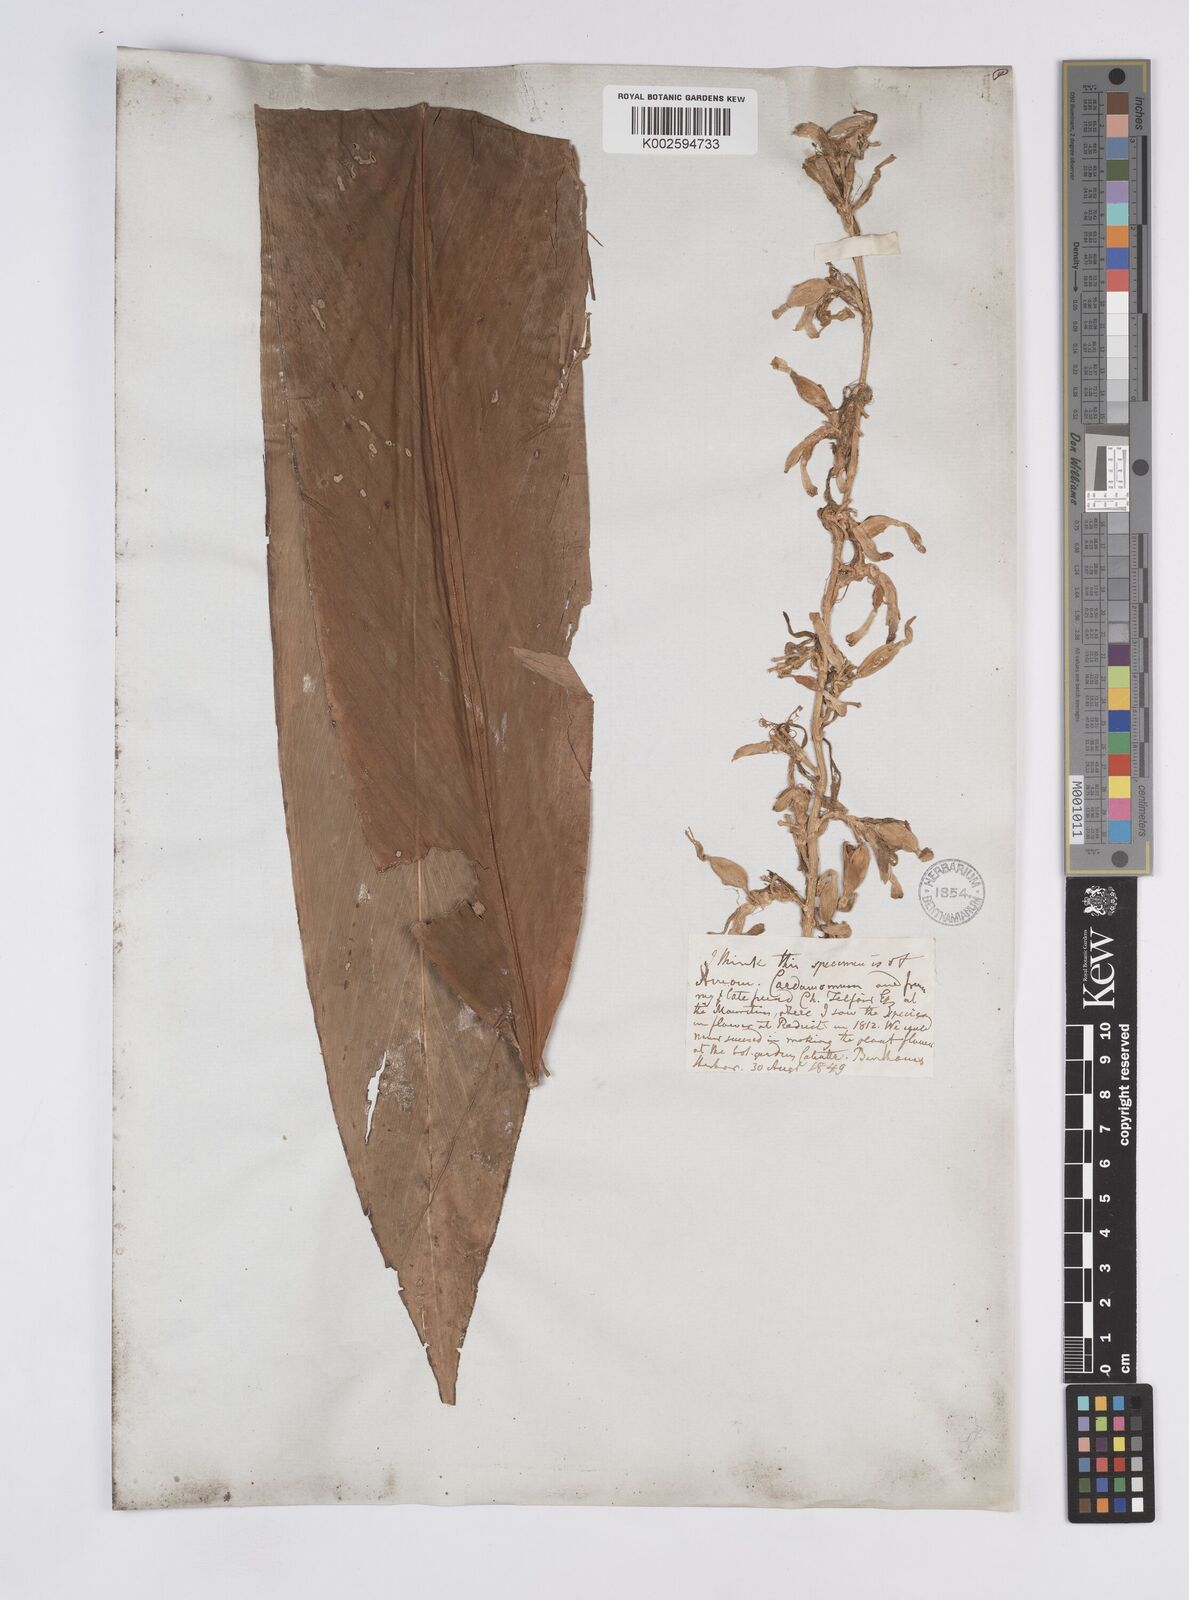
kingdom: Plantae
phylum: Tracheophyta
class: Liliopsida
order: Zingiberales
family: Zingiberaceae
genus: Elettaria
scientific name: Elettaria cardamomum
